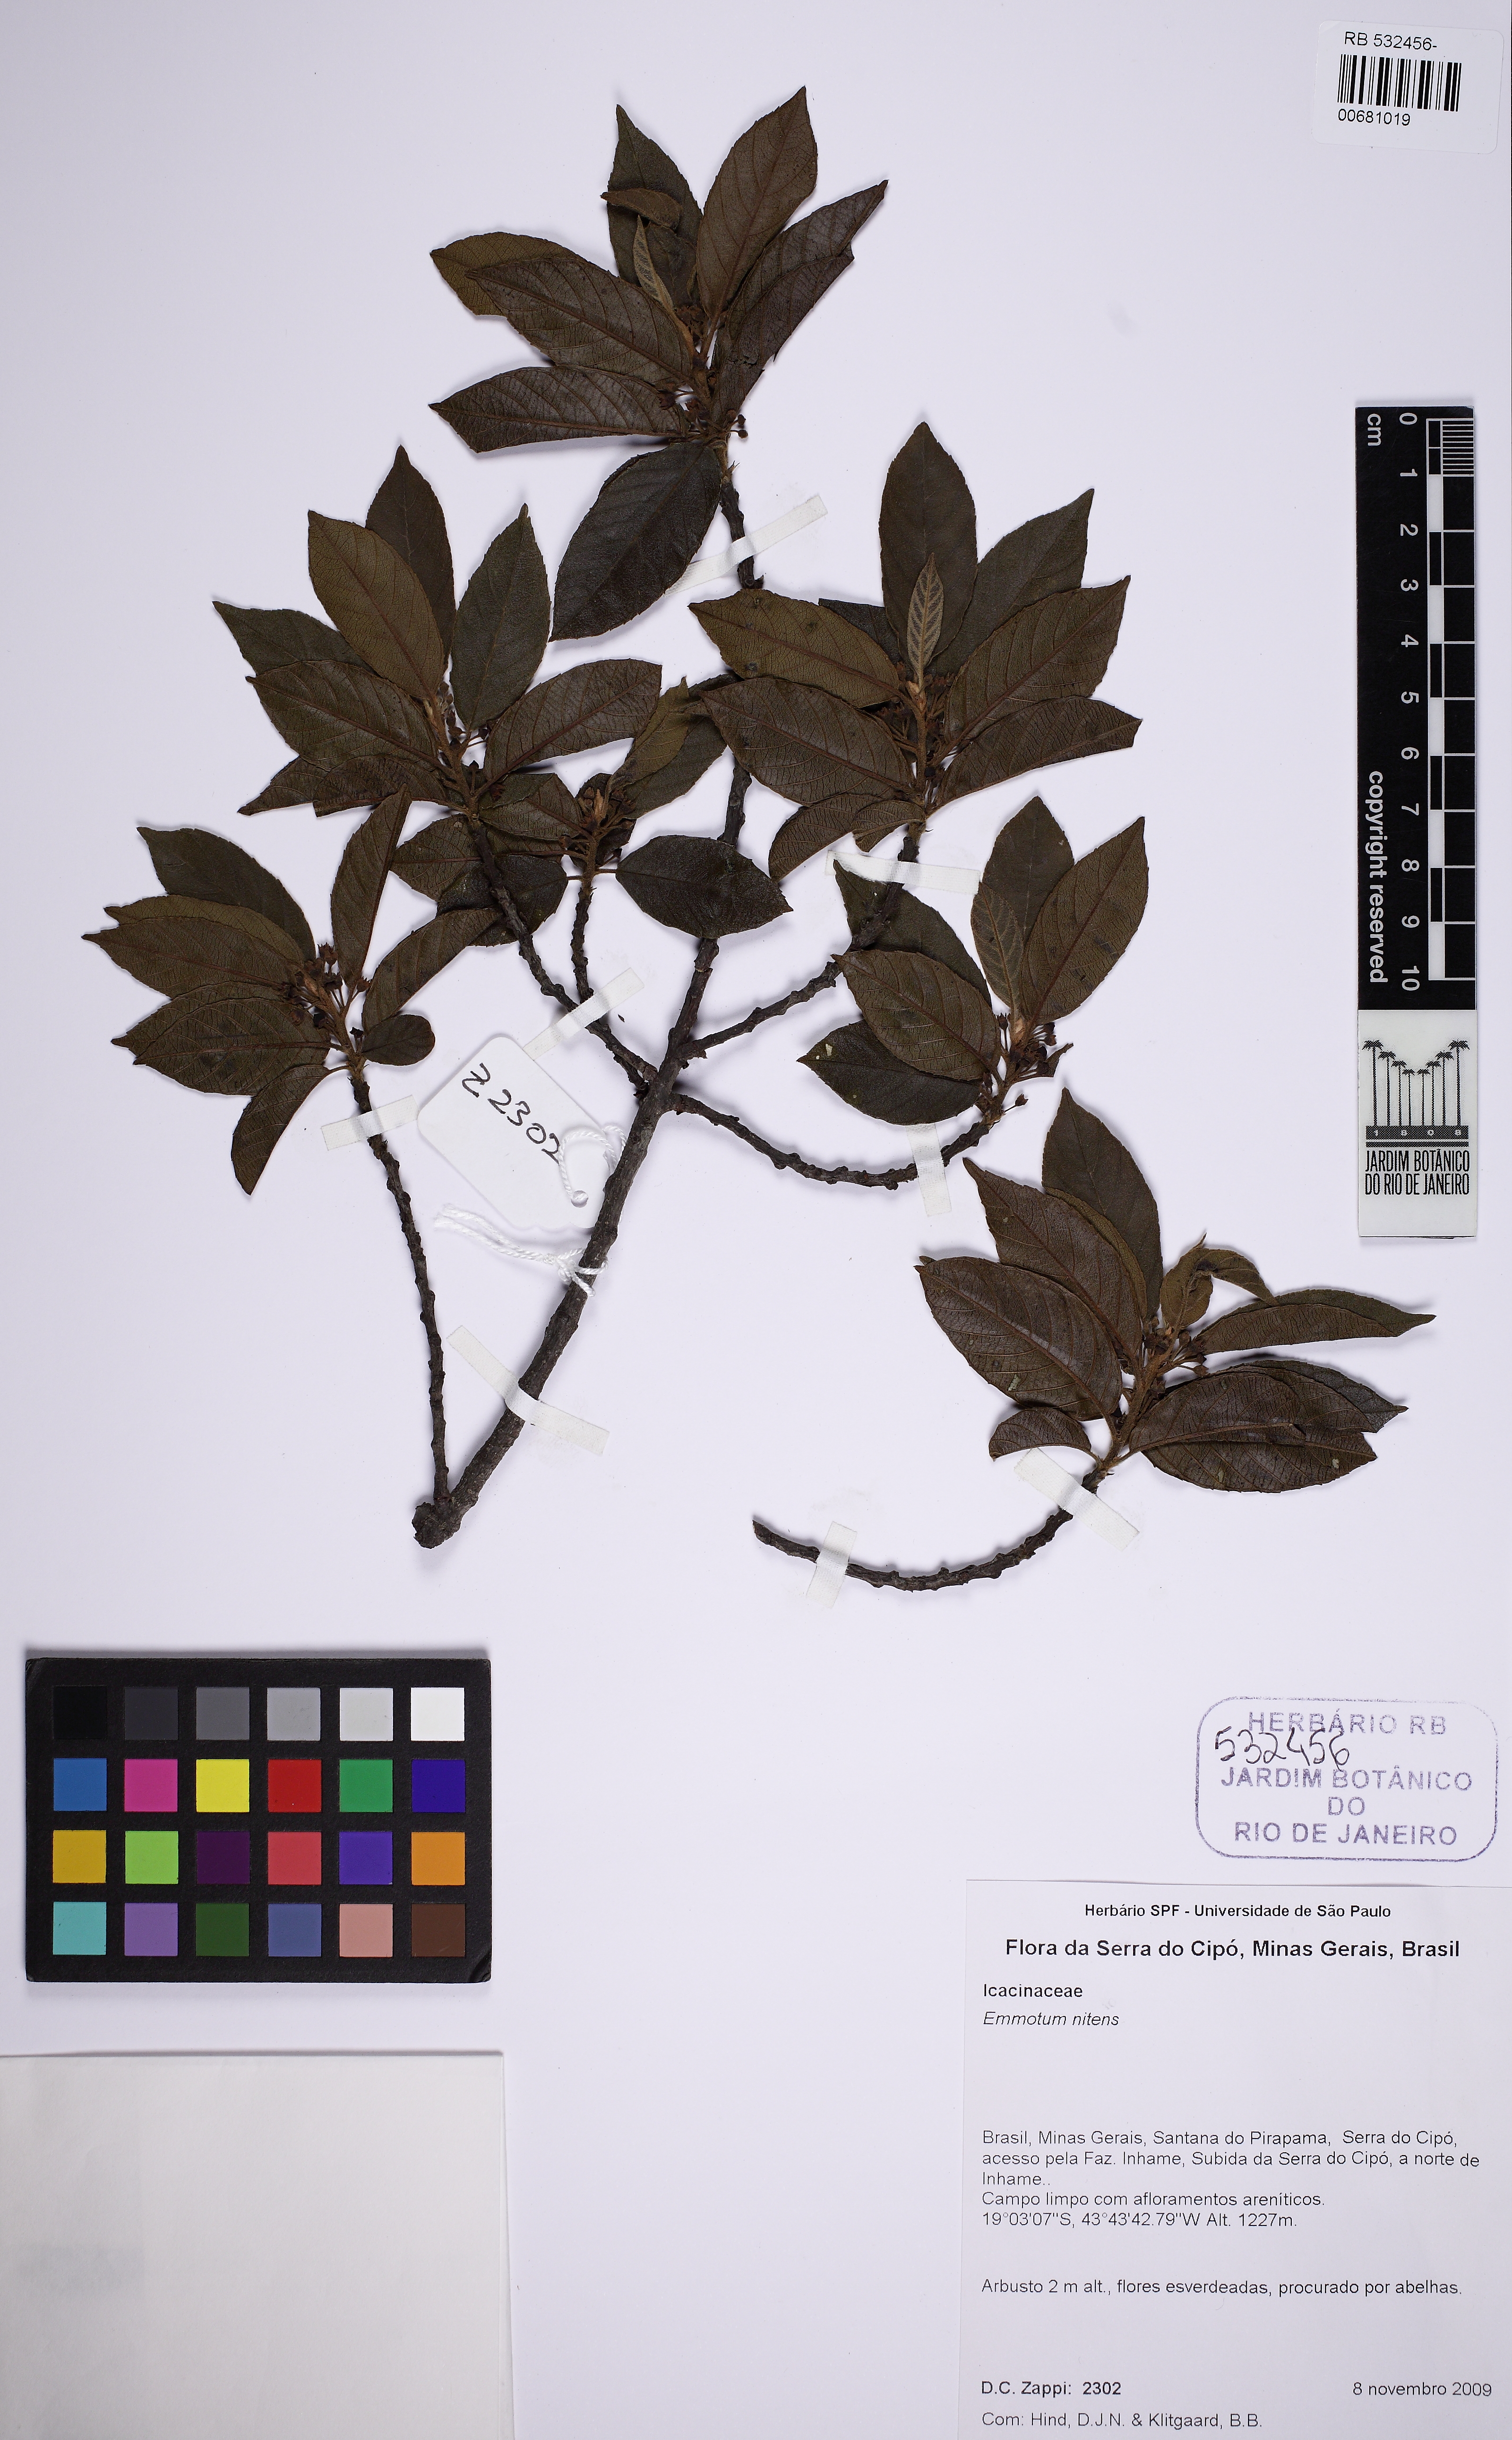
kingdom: Plantae
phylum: Tracheophyta
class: Magnoliopsida
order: Metteniusales
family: Metteniusaceae
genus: Emmotum
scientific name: Emmotum nitens
